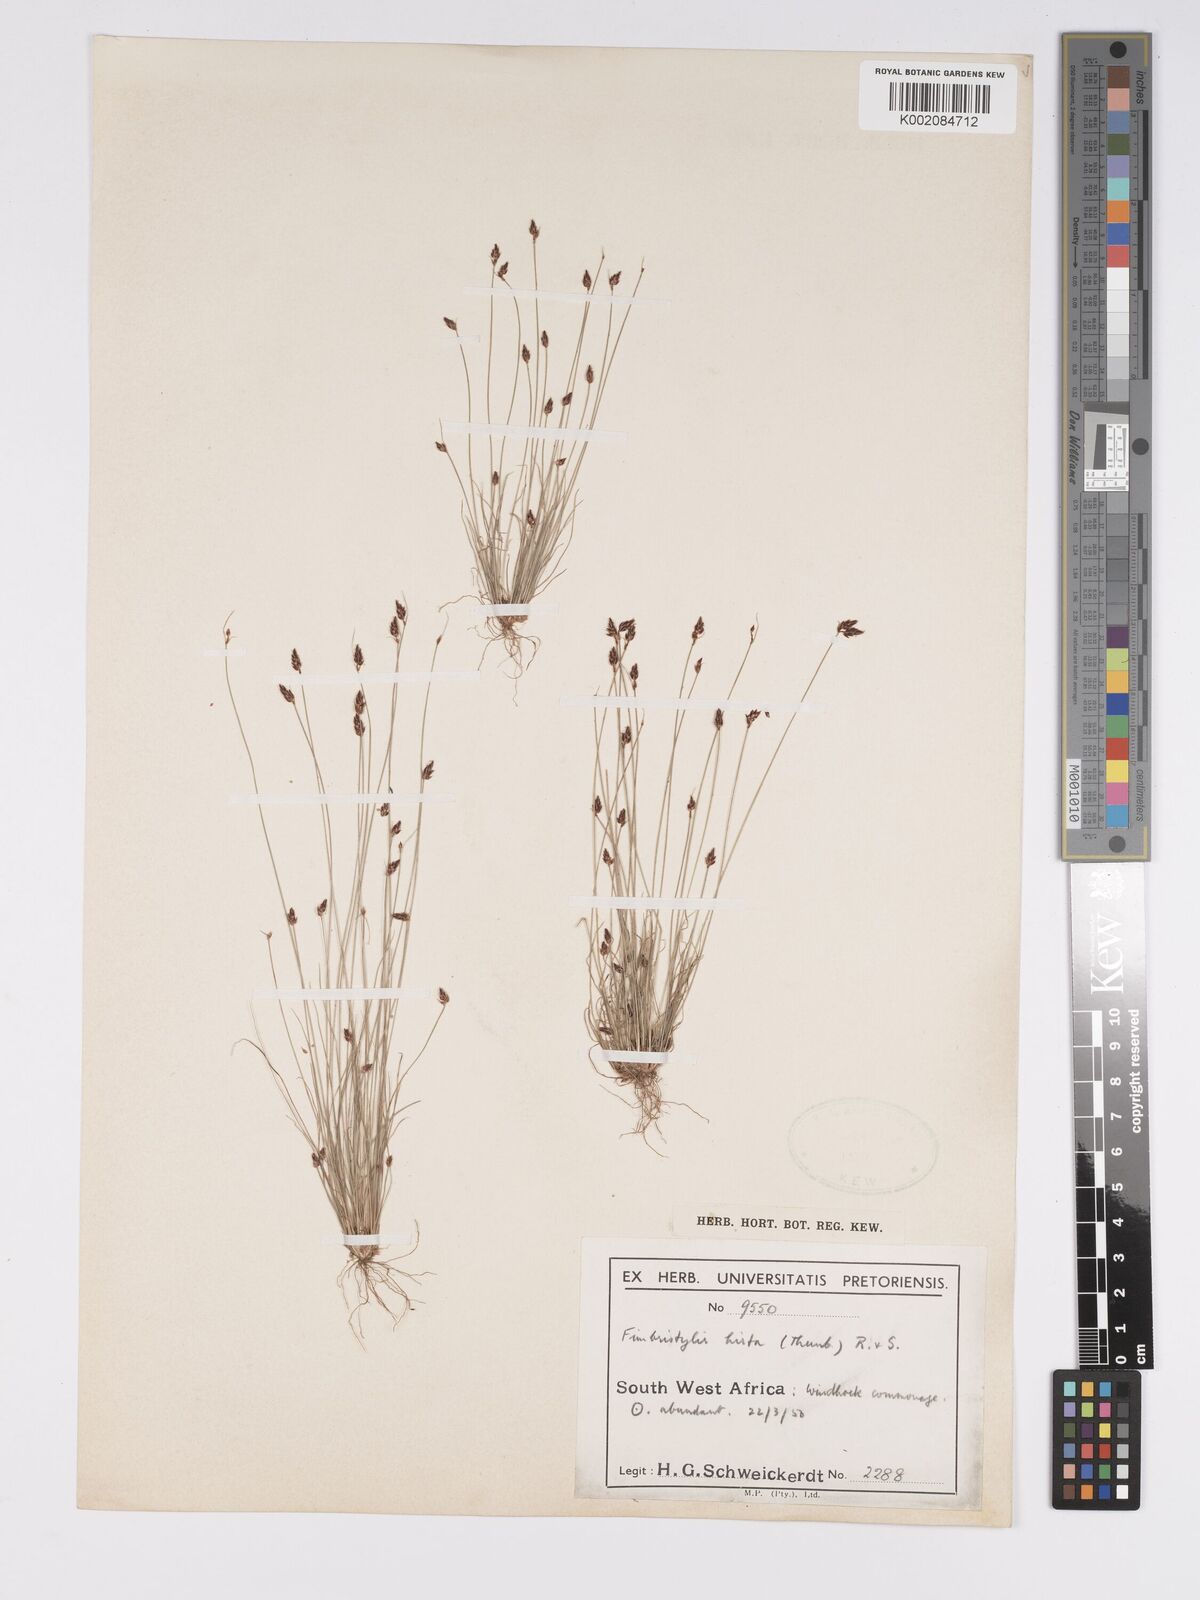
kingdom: Plantae
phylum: Tracheophyta
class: Liliopsida
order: Poales
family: Cyperaceae
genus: Bulbostylis
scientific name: Bulbostylis hispidula
